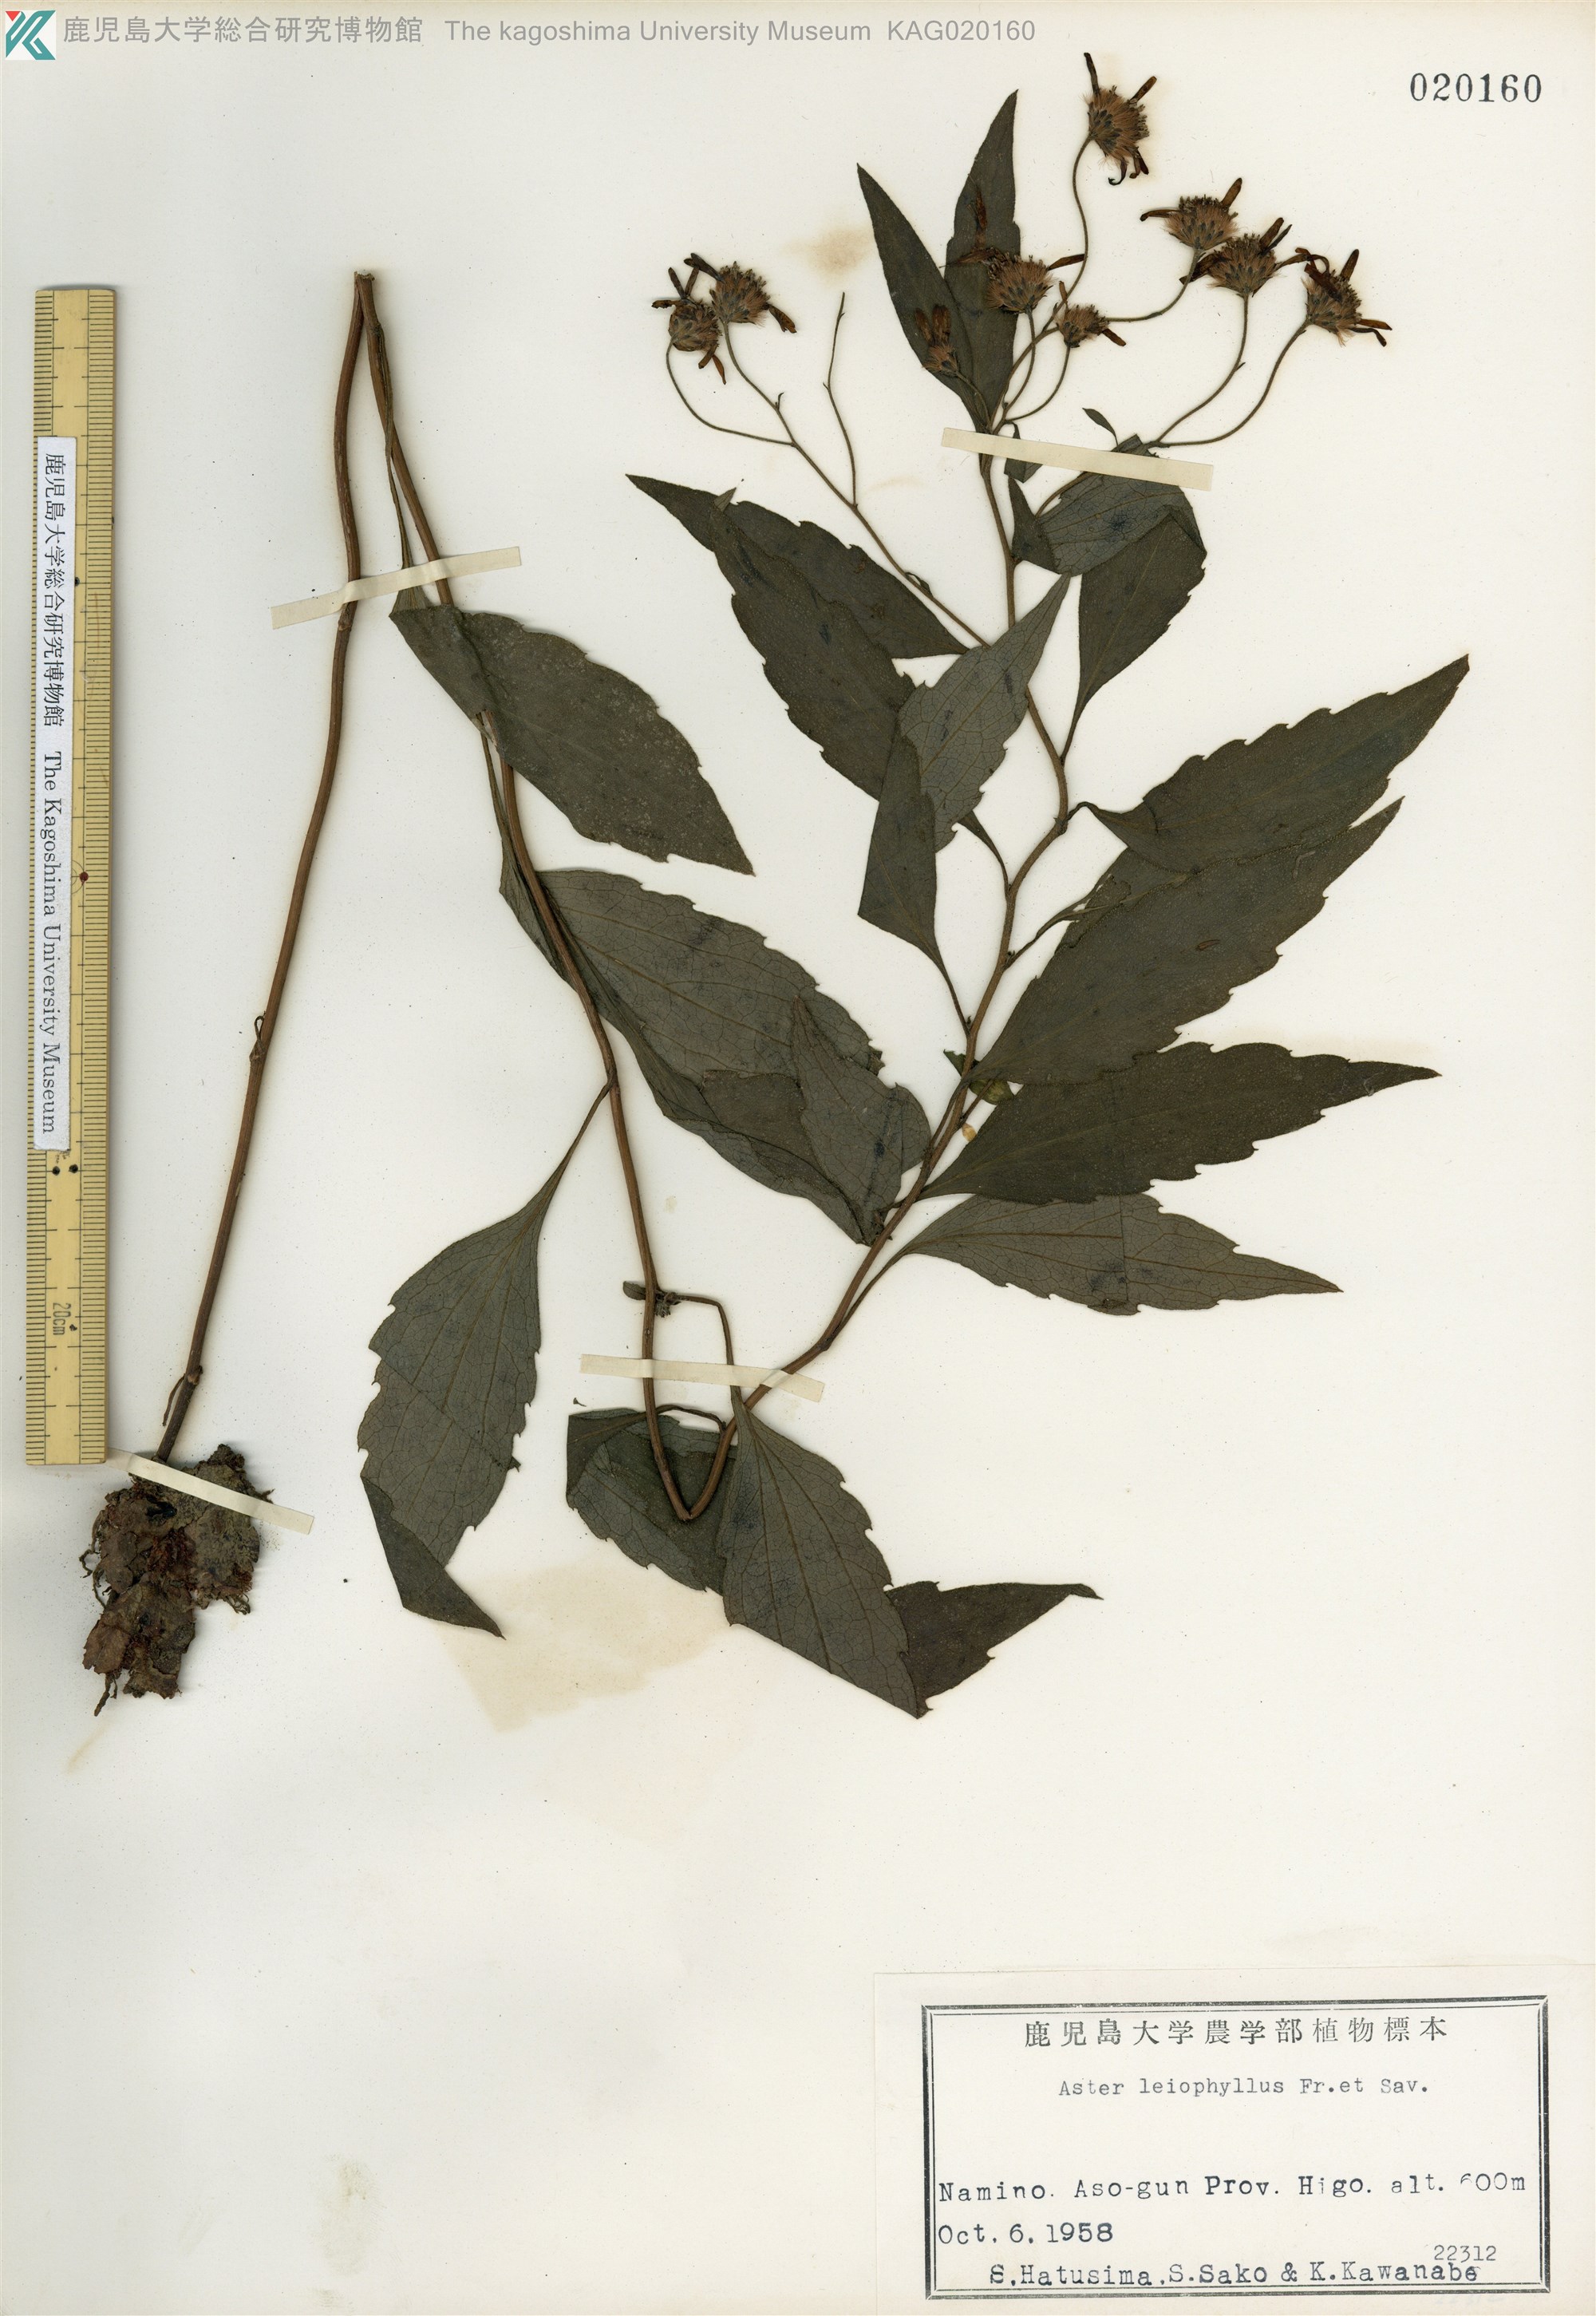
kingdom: Plantae
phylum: Tracheophyta
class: Magnoliopsida
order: Asterales
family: Asteraceae
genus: Aster
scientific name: Aster ageratoides
